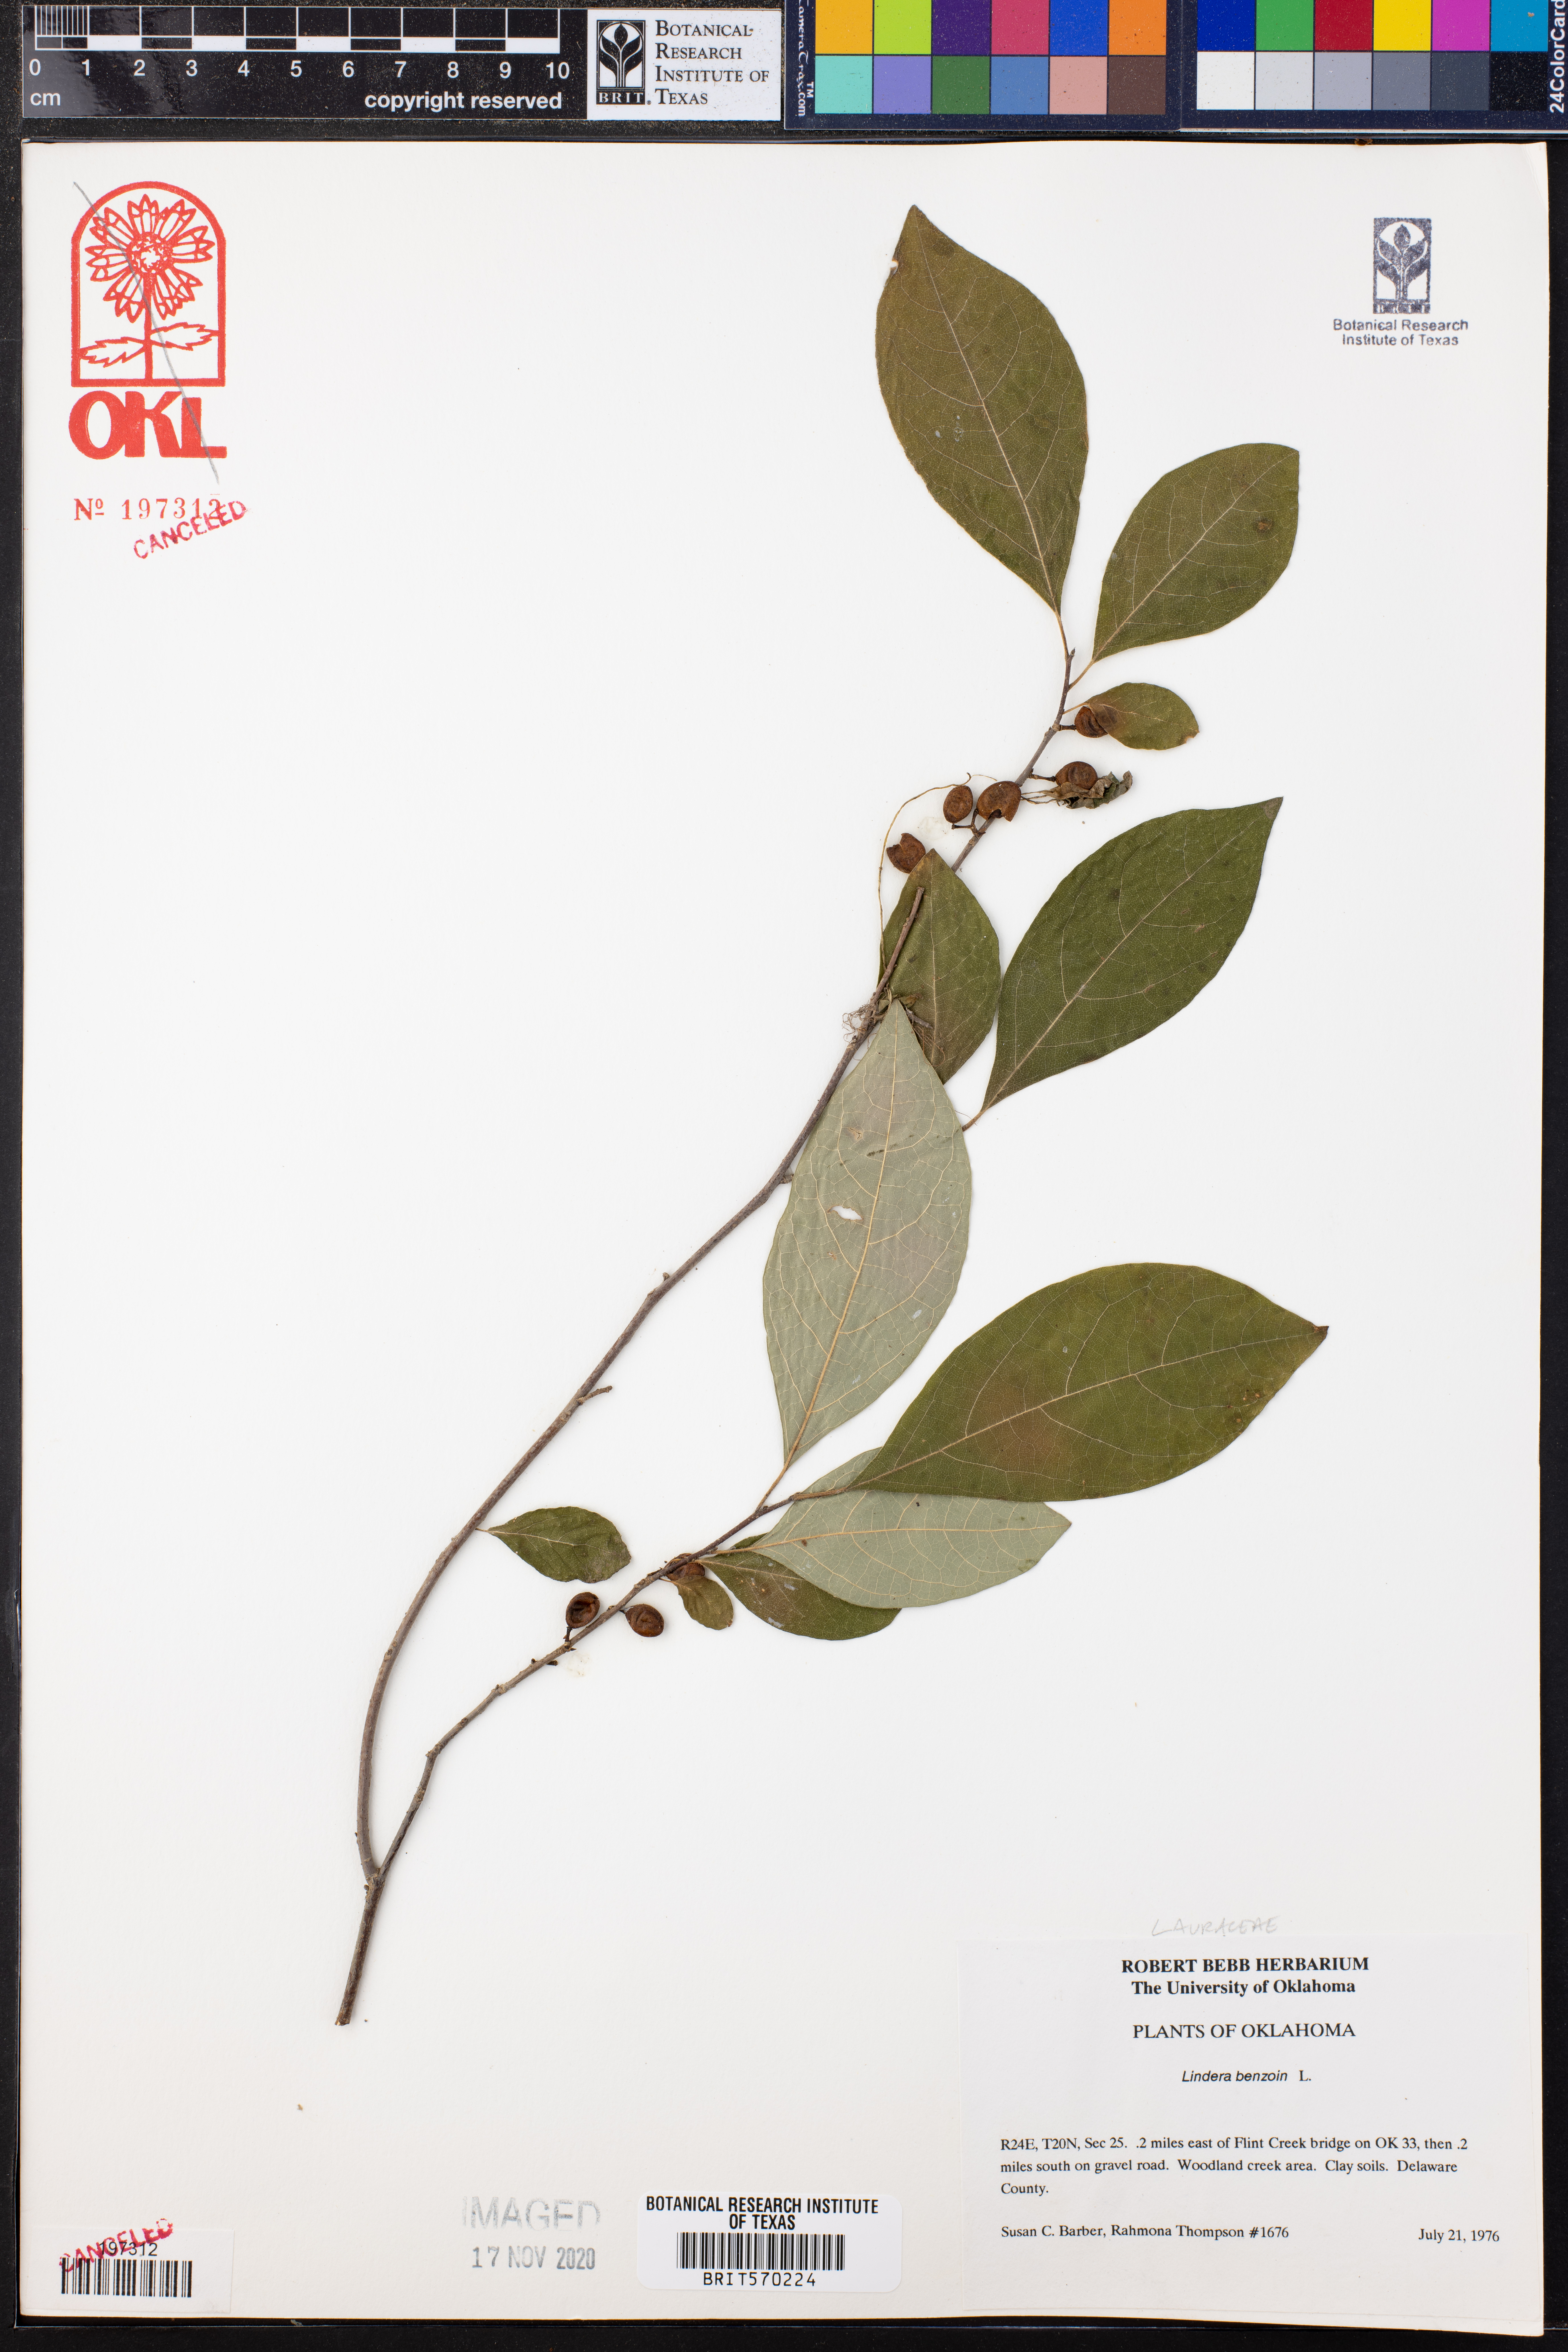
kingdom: Plantae
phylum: Tracheophyta
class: Magnoliopsida
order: Laurales
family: Lauraceae
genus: Lindera
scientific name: Lindera benzoin
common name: Spicebush
